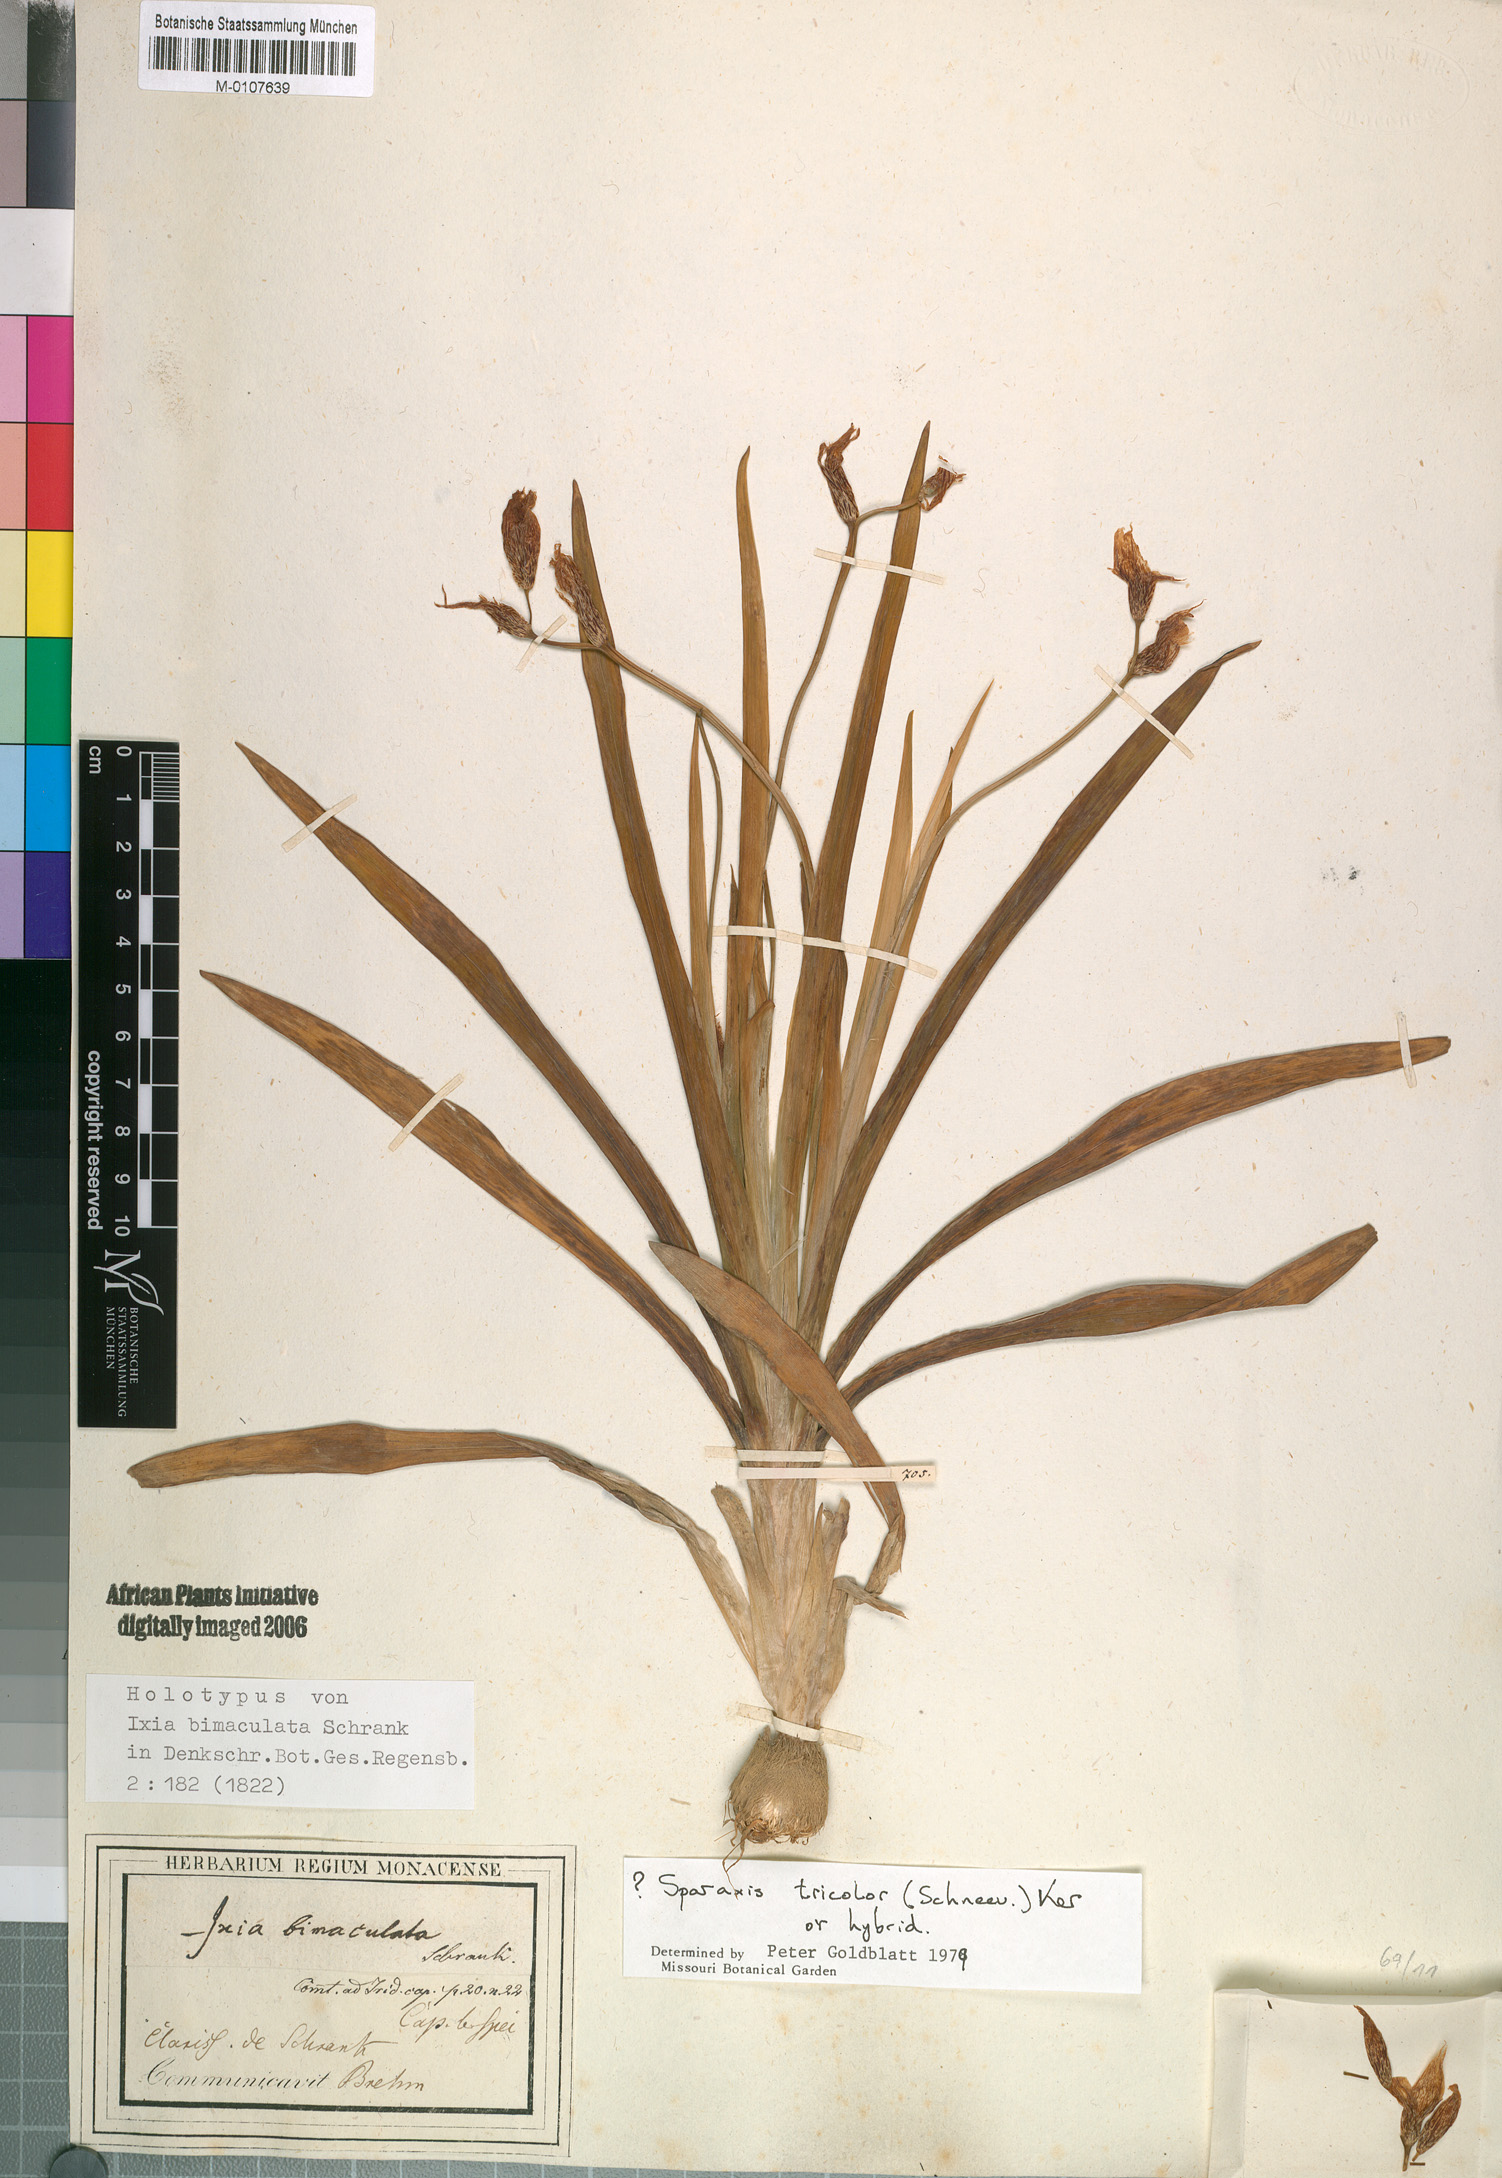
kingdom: Plantae
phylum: Tracheophyta
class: Liliopsida
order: Asparagales
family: Iridaceae
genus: Sparaxis
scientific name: Sparaxis tricolor
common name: Wandflower
